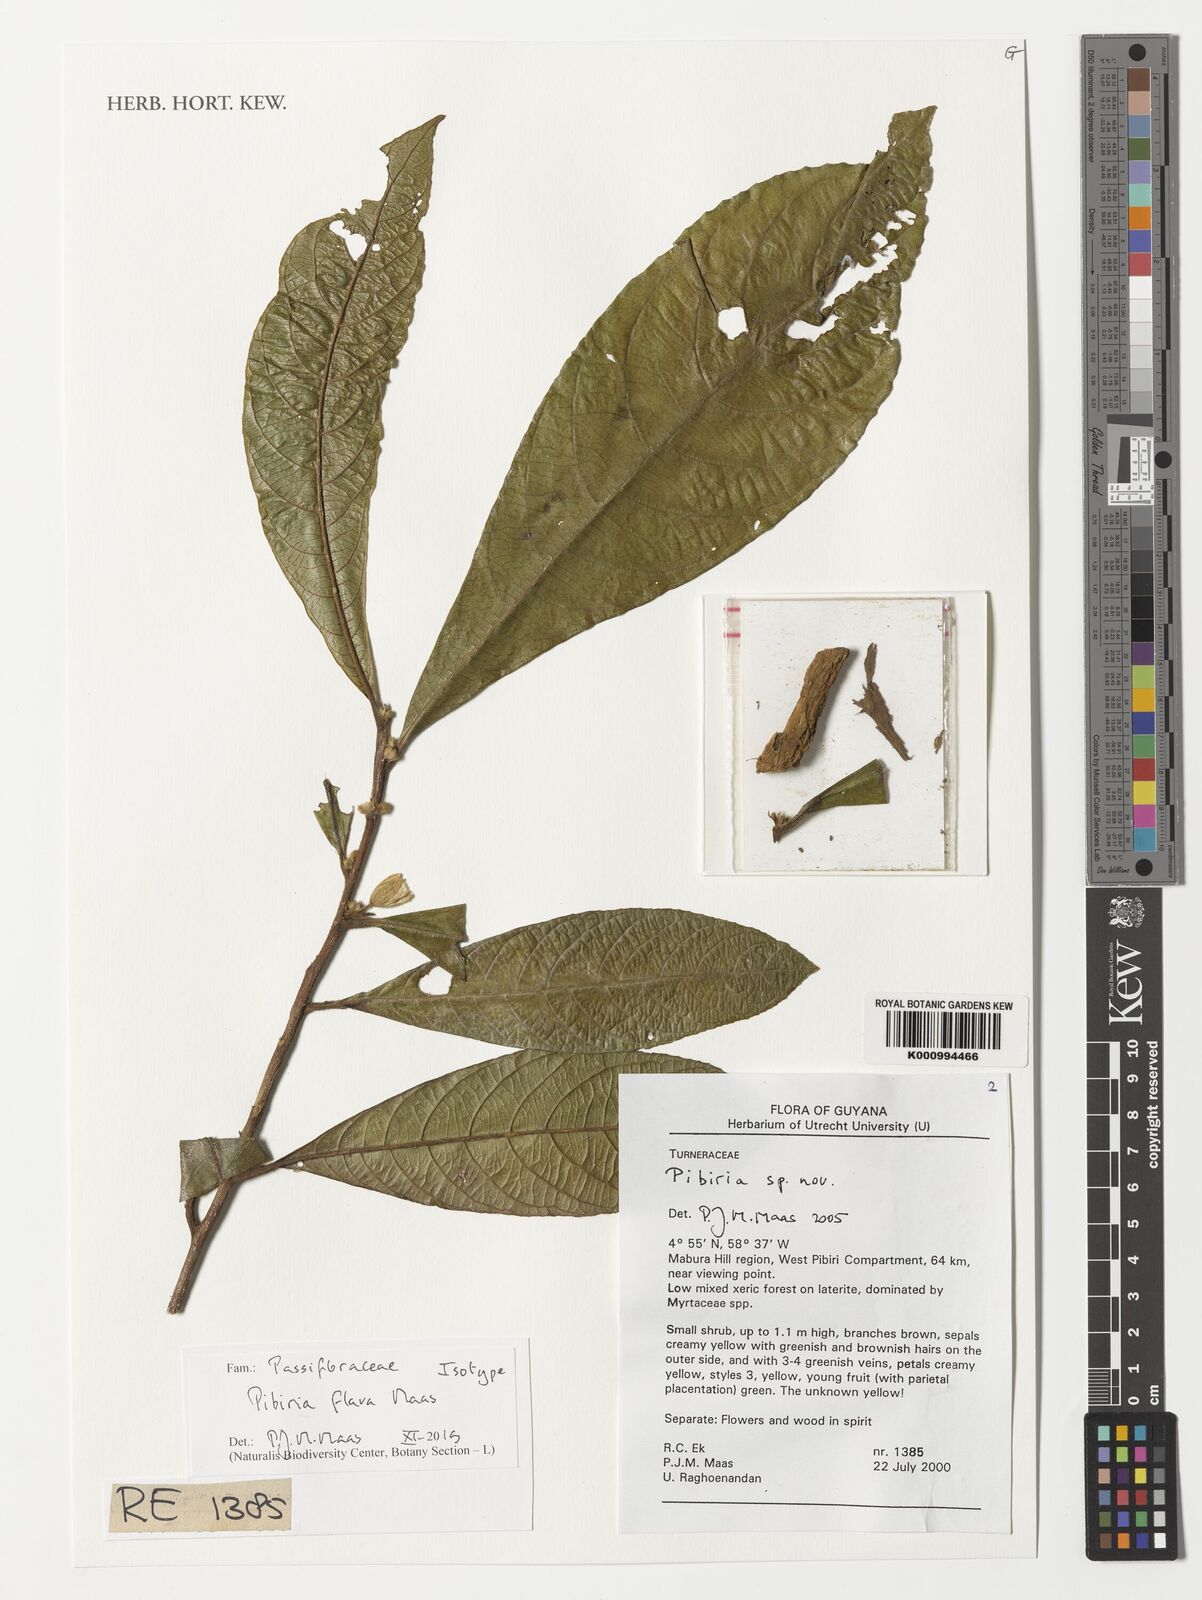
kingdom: Plantae
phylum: Tracheophyta
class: Magnoliopsida
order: Malpighiales
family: Turneraceae
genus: Pibiria
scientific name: Pibiria flava
